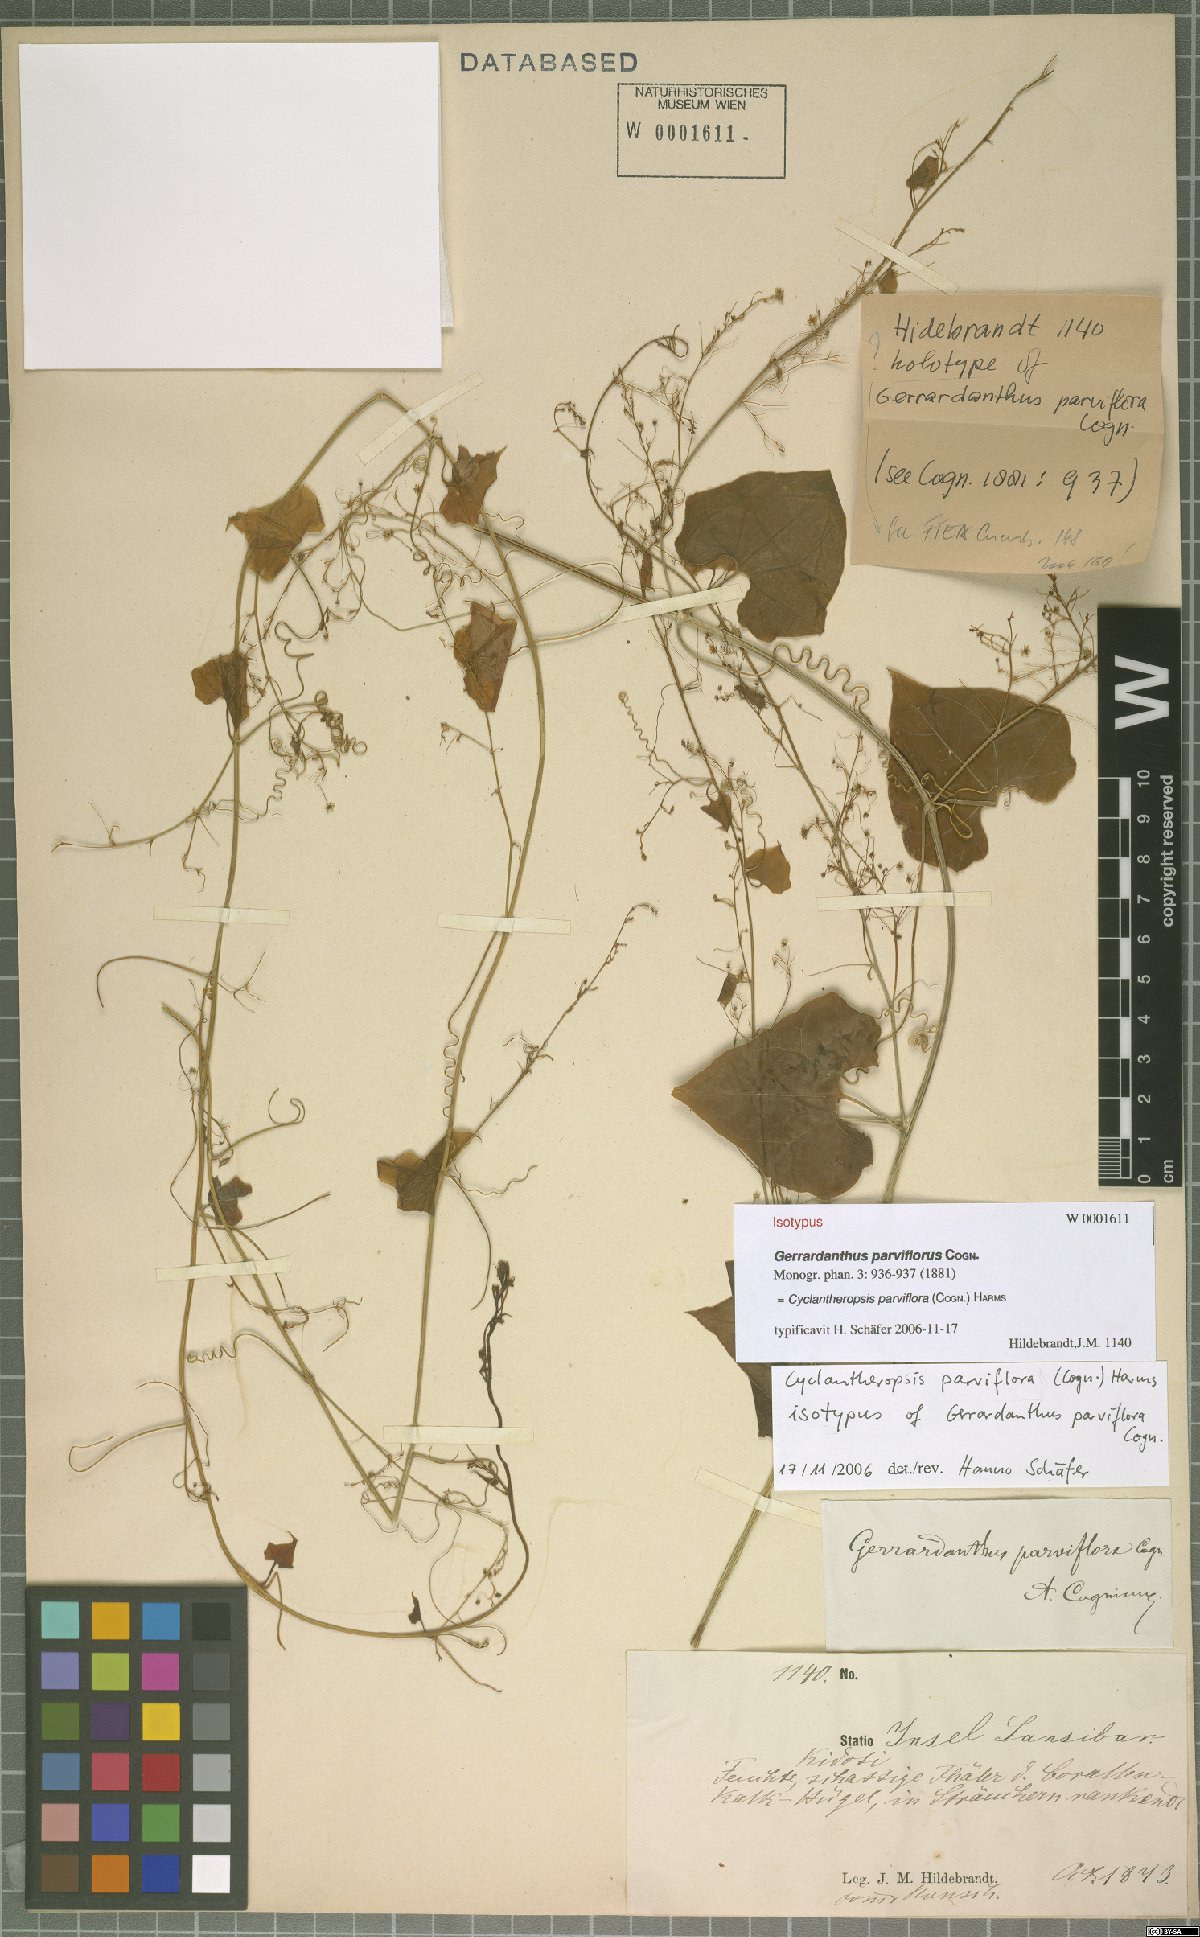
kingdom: Plantae
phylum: Tracheophyta
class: Magnoliopsida
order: Cucurbitales
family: Cucurbitaceae
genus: Cyclantheropsis
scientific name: Cyclantheropsis parviflora
